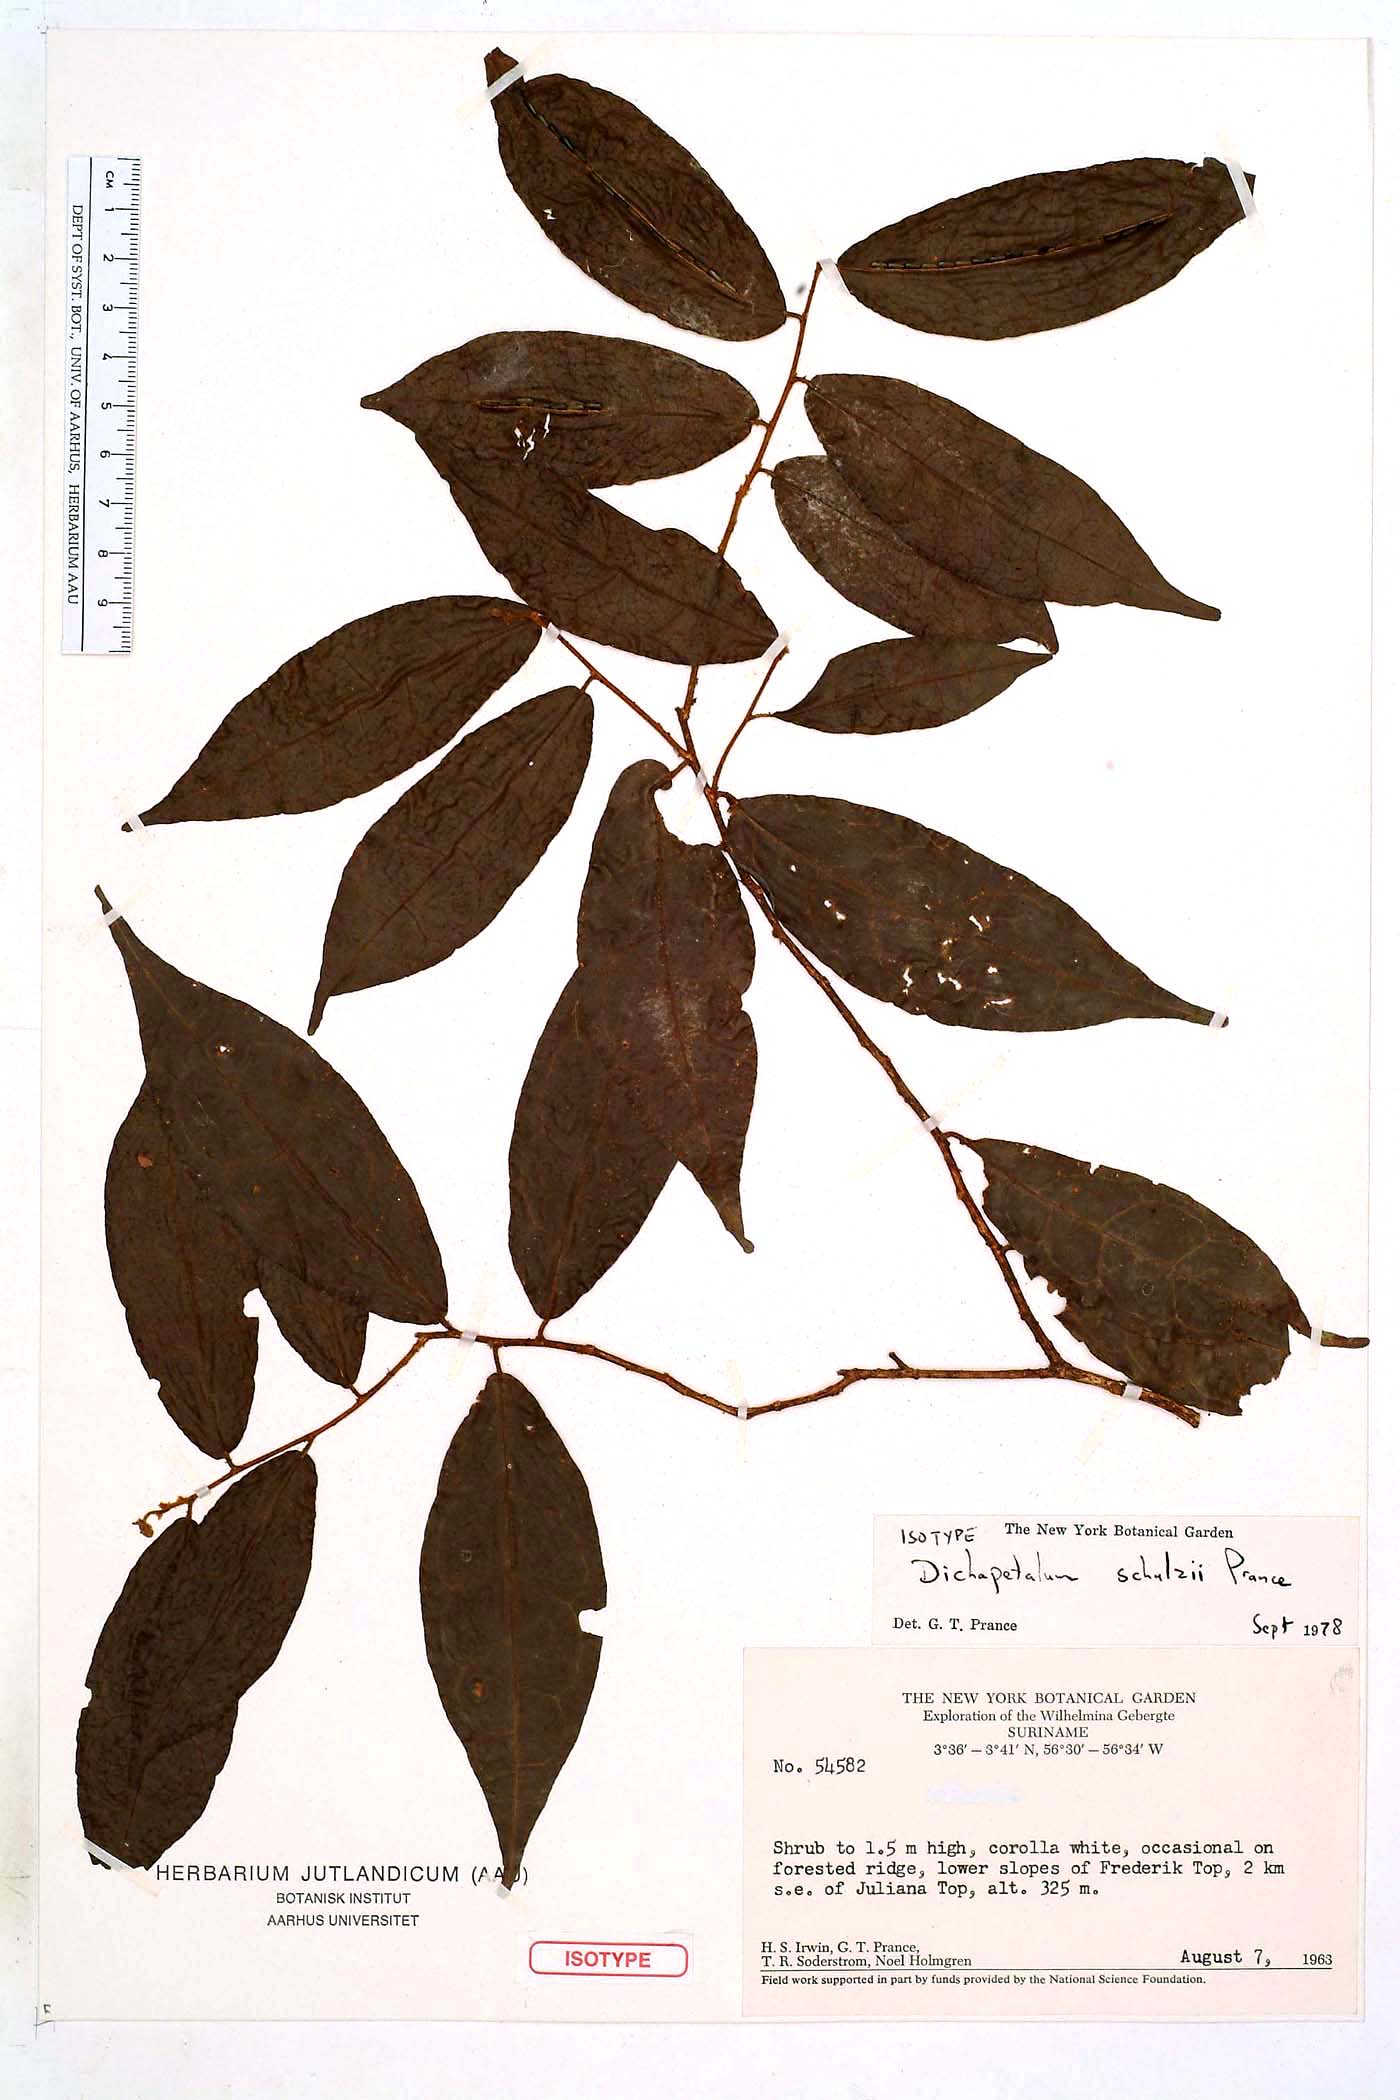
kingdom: Plantae
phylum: Tracheophyta
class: Magnoliopsida
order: Malpighiales
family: Dichapetalaceae
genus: Dichapetalum
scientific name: Dichapetalum schulzii
